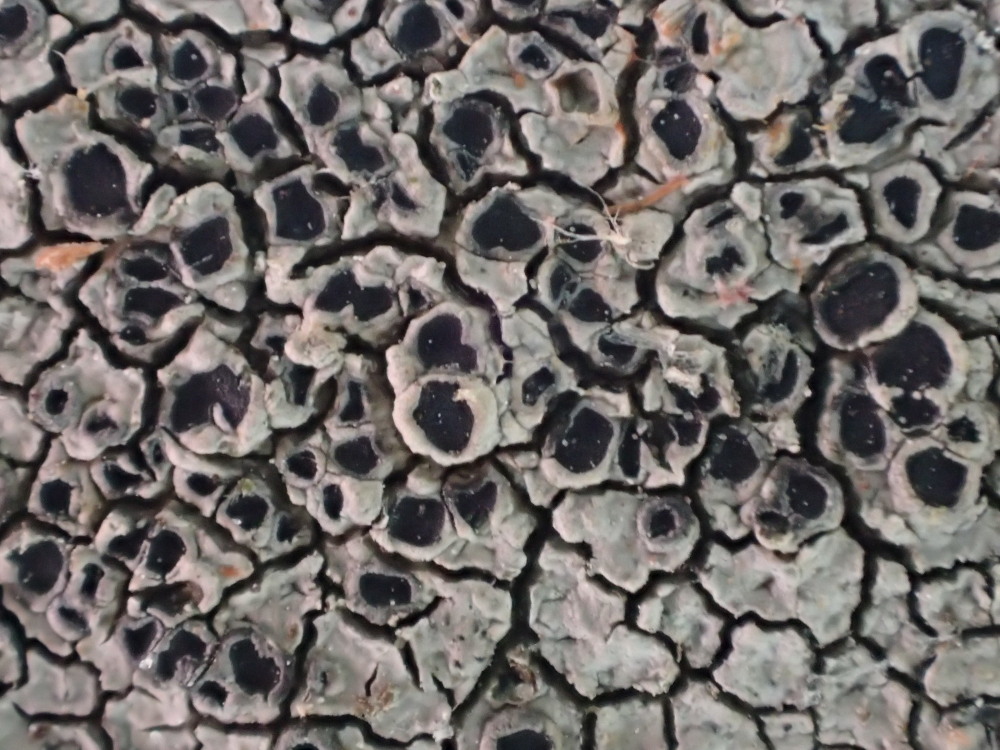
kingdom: Fungi
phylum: Ascomycota
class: Lecanoromycetes
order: Pertusariales
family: Megasporaceae
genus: Circinaria
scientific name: Circinaria caesiocinerea
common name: fuglestens-hulskivelav
